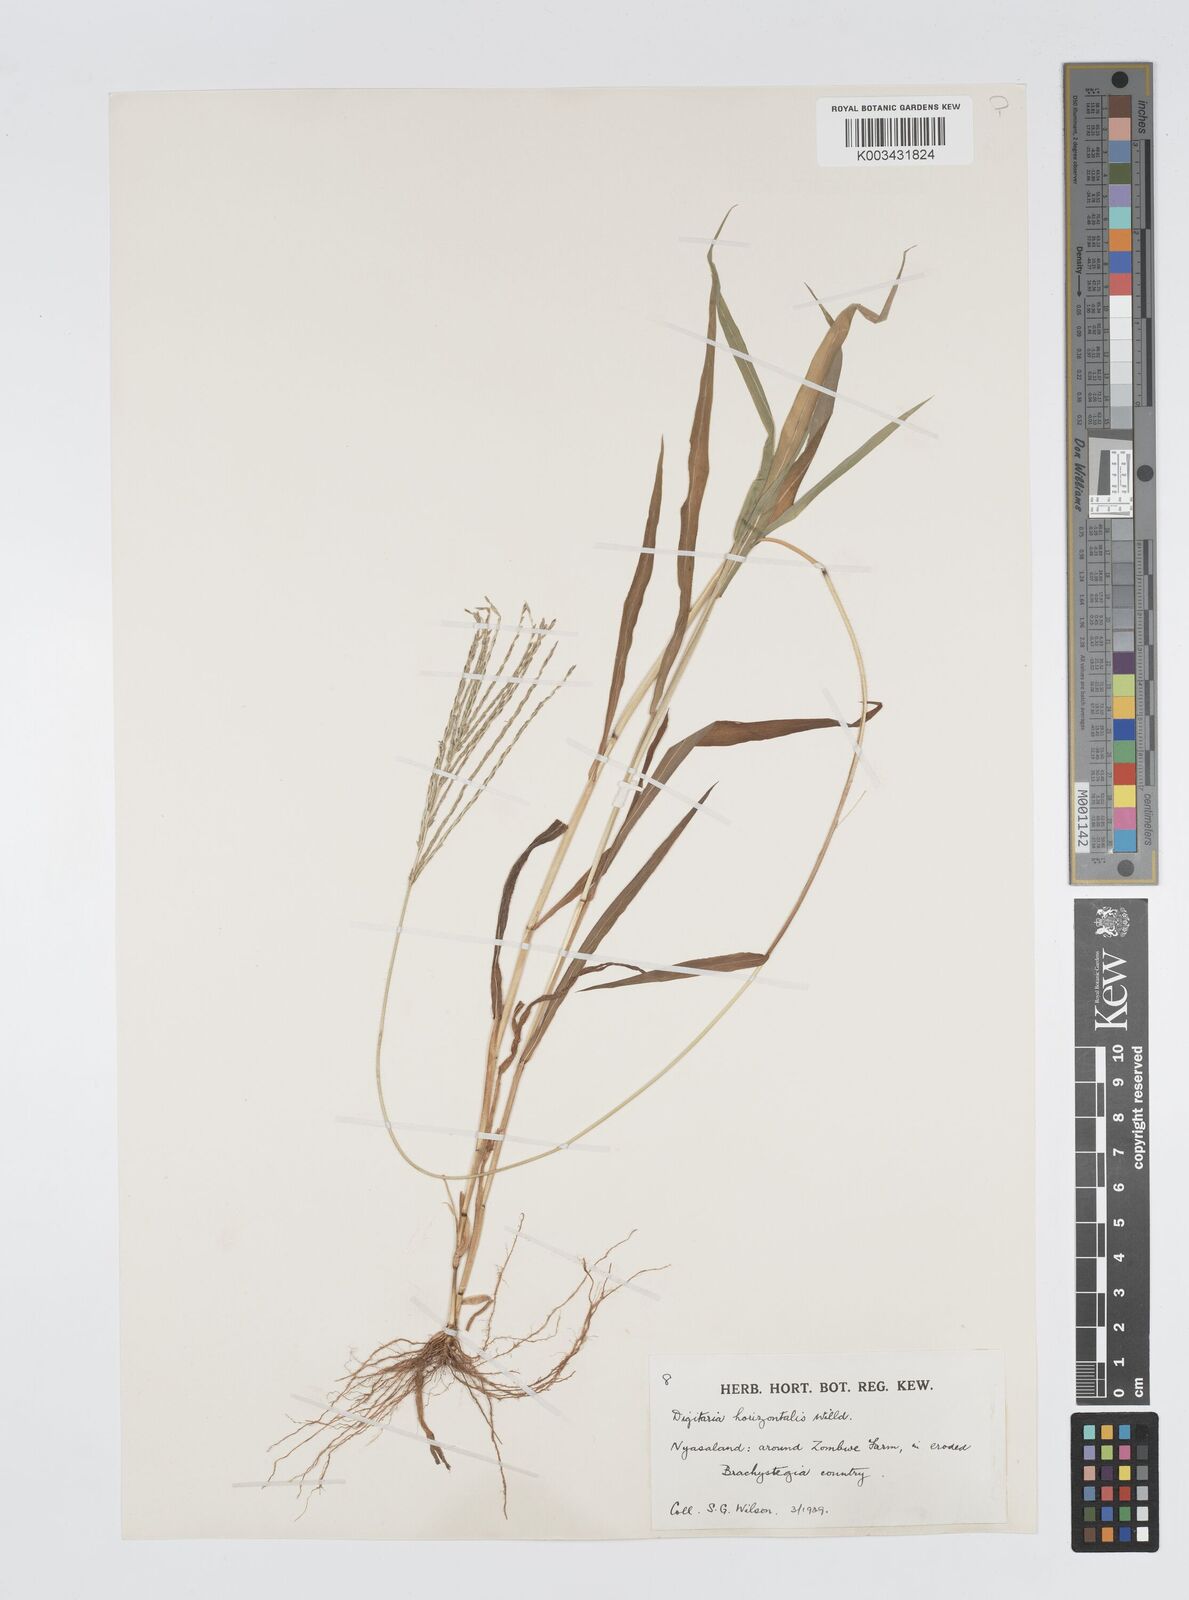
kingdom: Plantae
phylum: Tracheophyta
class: Liliopsida
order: Poales
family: Poaceae
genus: Digitaria
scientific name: Digitaria velutina
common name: Long-plume finger grass
